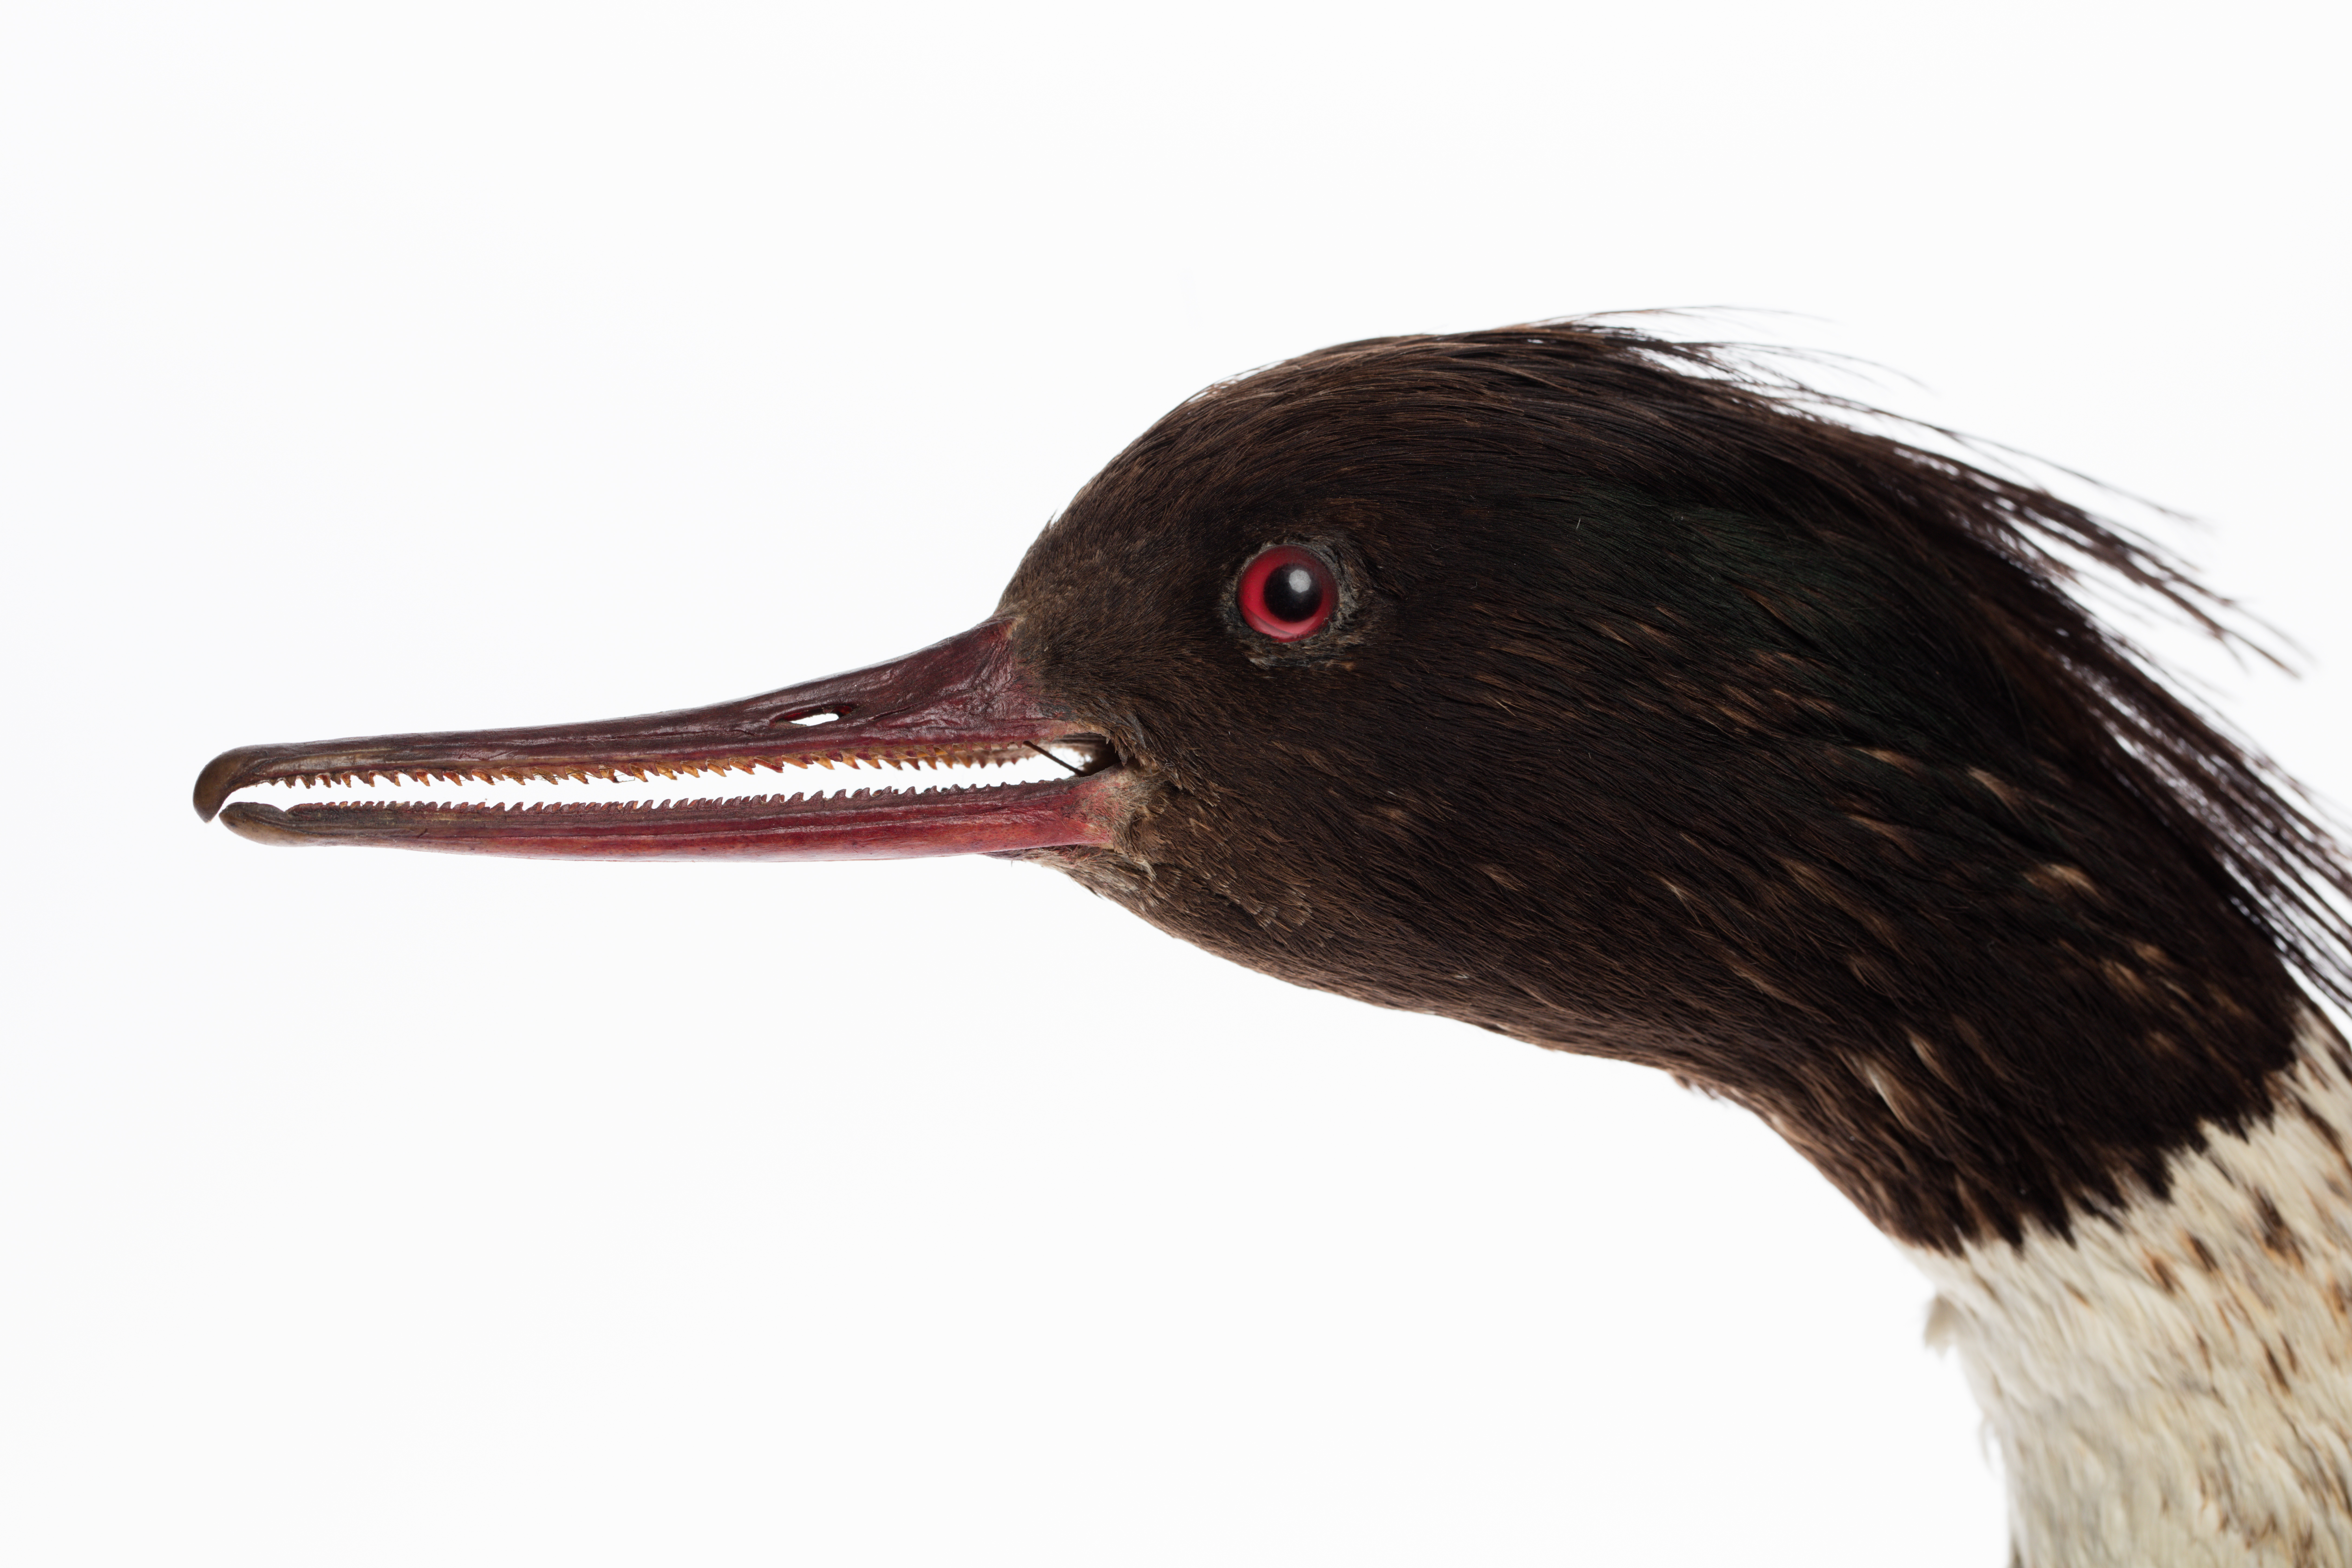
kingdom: Animalia
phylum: Chordata
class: Aves
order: Anseriformes
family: Anatidae
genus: Mergus
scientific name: Mergus serrator
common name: Red-breasted merganser
